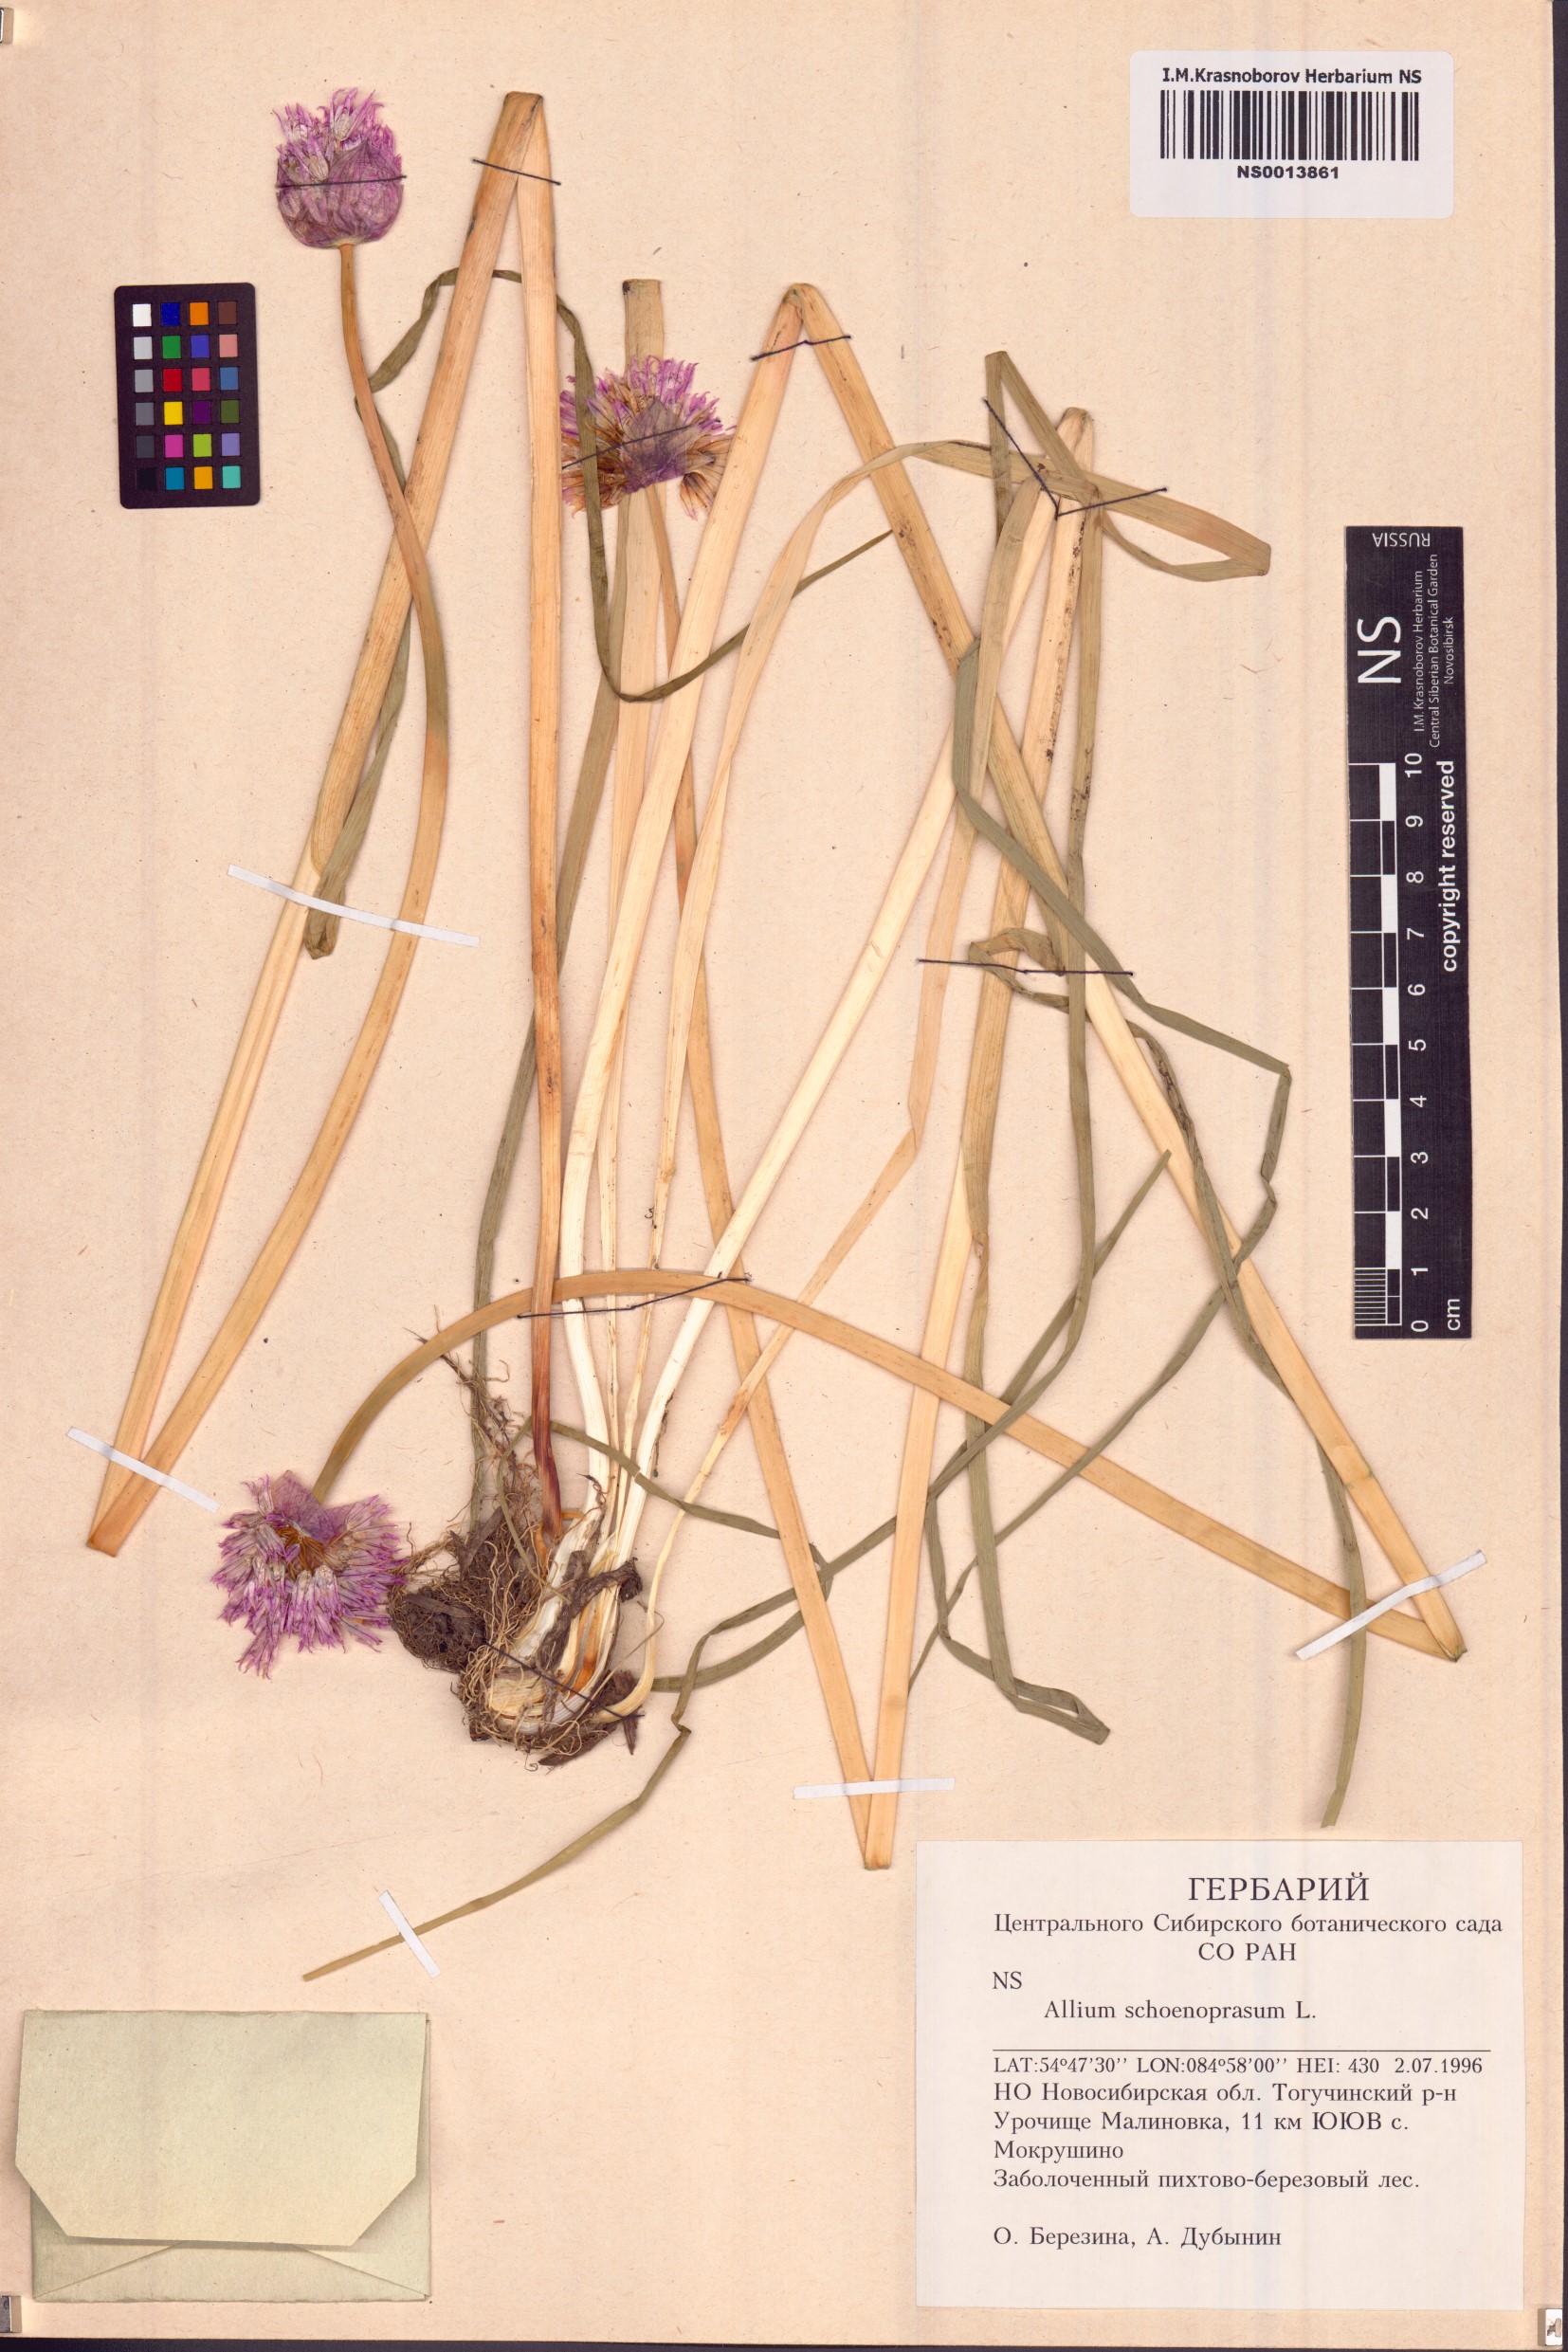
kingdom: Plantae
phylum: Tracheophyta
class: Liliopsida
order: Asparagales
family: Amaryllidaceae
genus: Allium
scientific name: Allium schoenoprasum
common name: Chives
